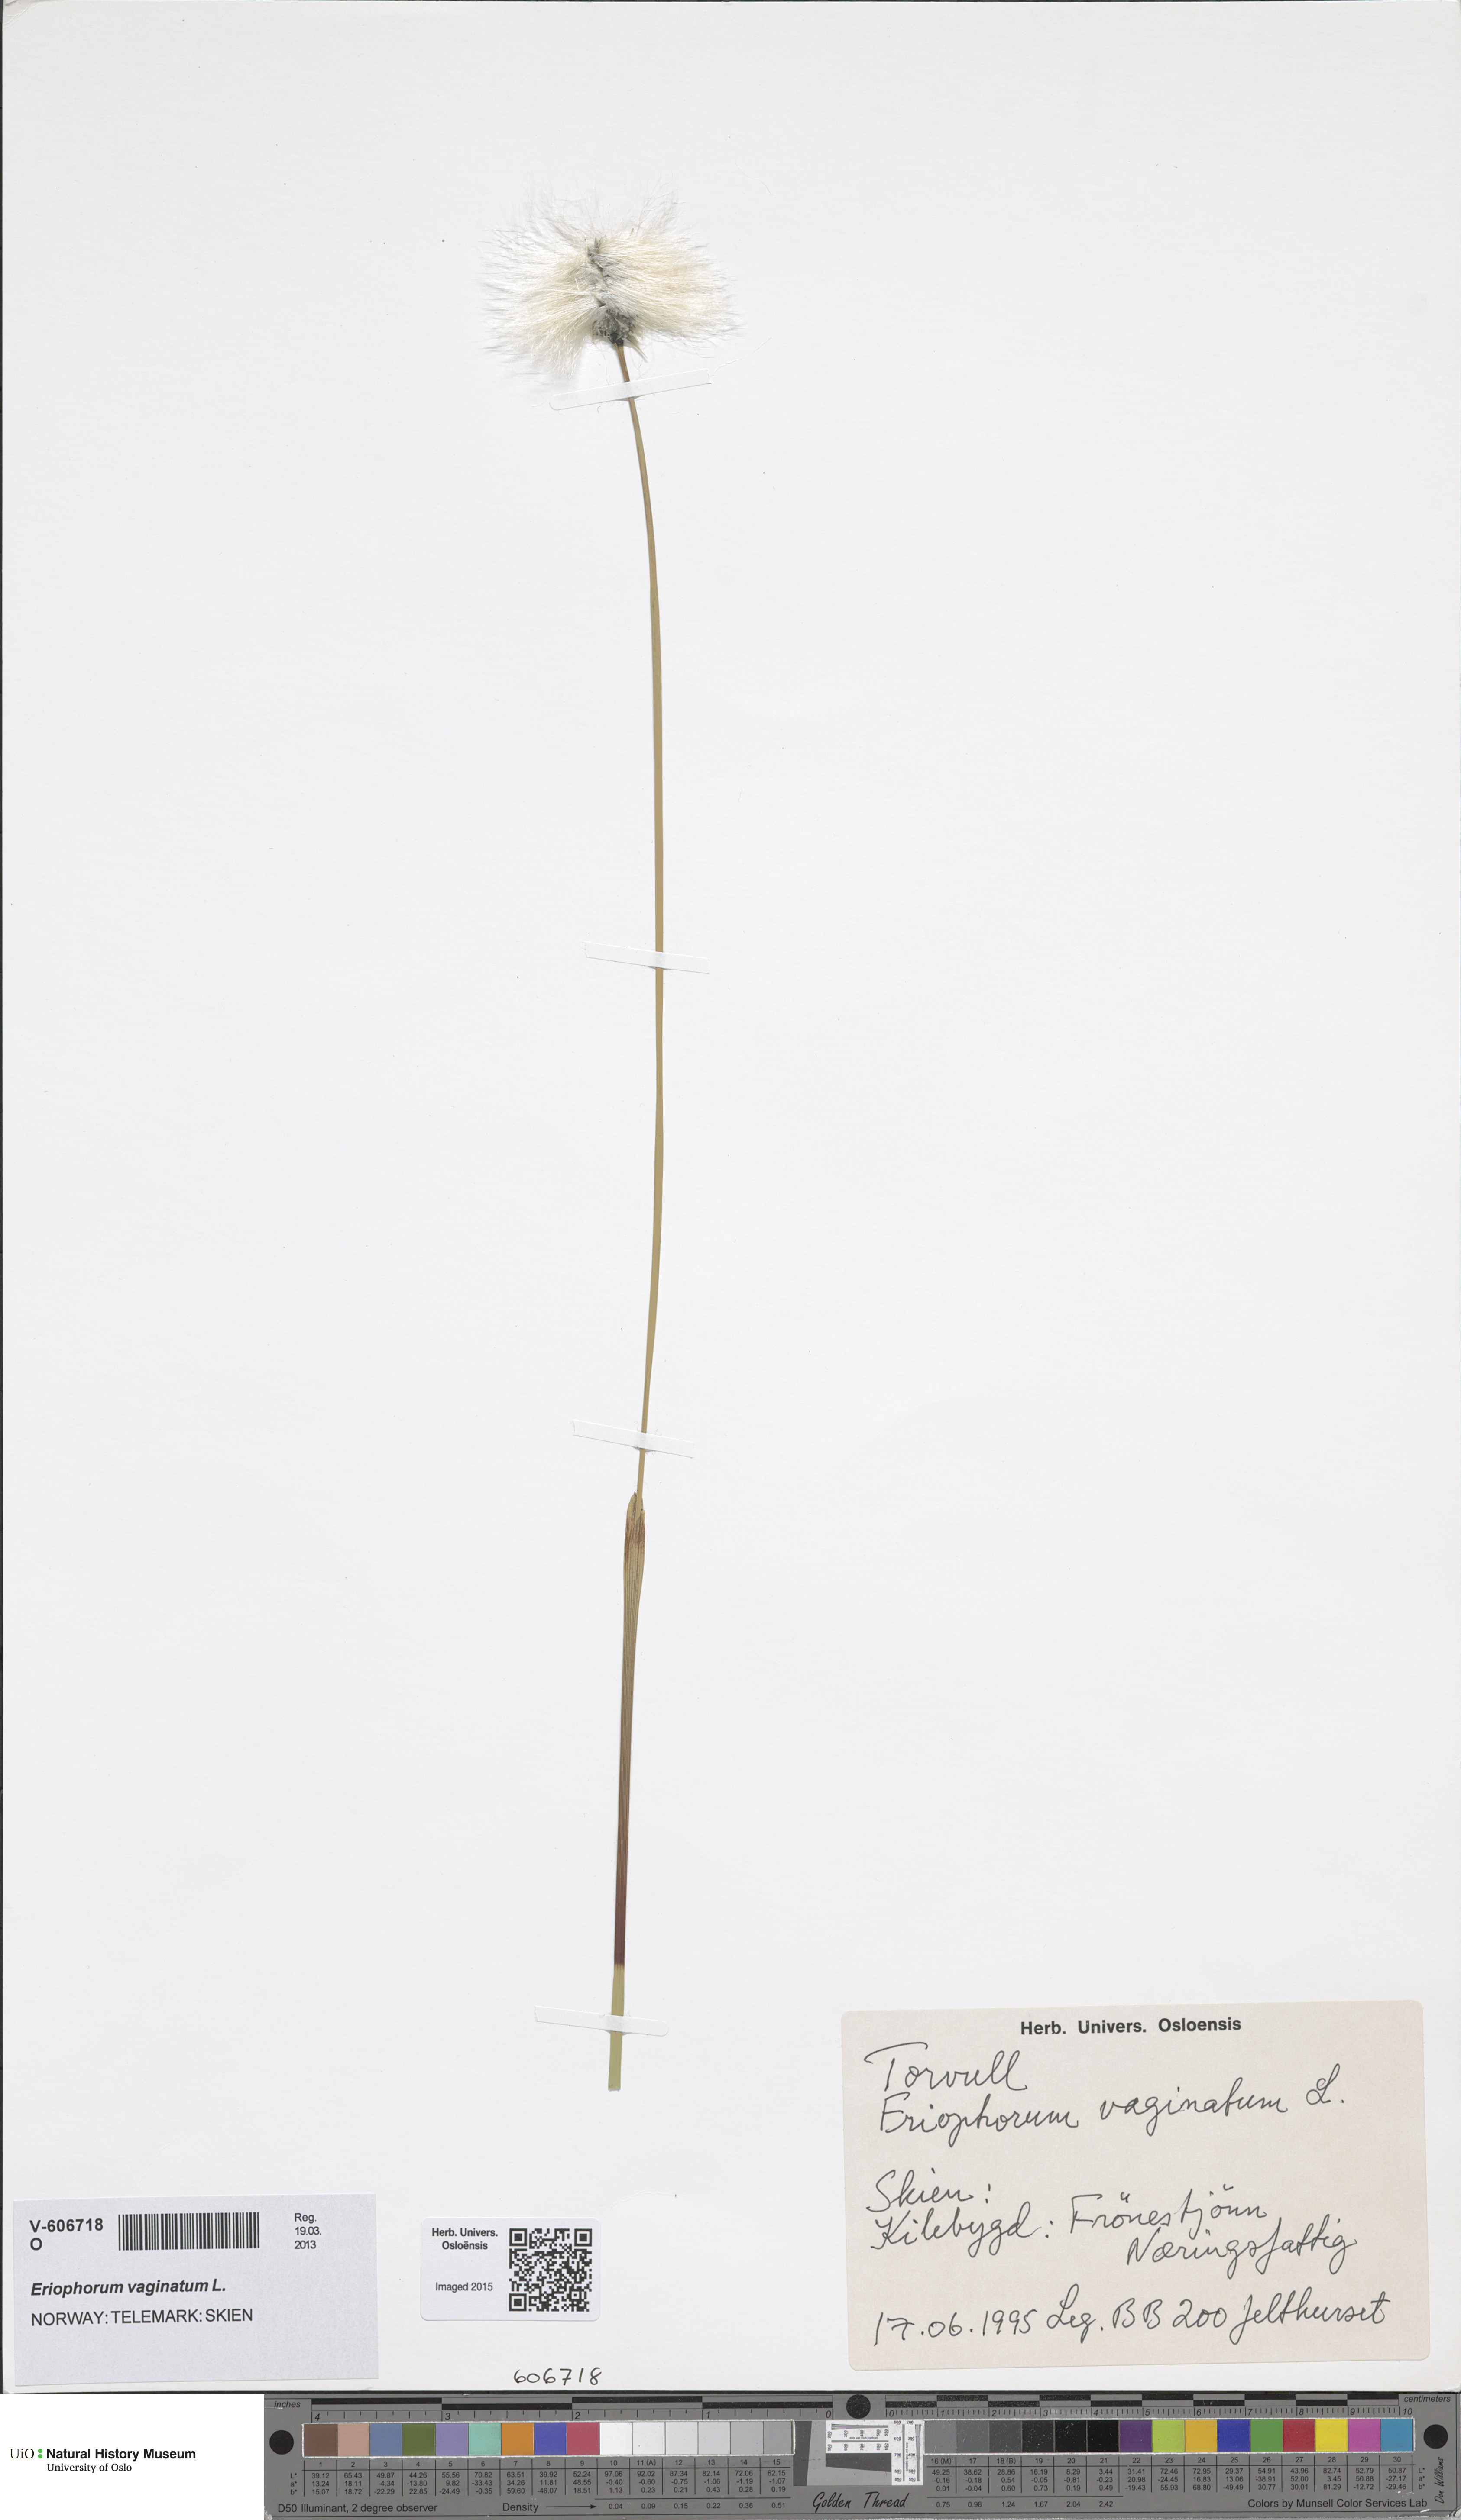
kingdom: Plantae
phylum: Tracheophyta
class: Liliopsida
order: Poales
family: Cyperaceae
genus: Eriophorum
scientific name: Eriophorum vaginatum
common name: Hare's-tail cottongrass
